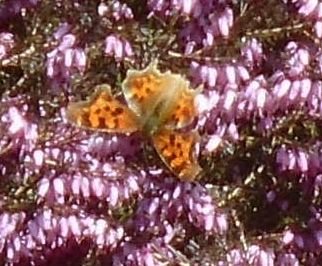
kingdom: Animalia
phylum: Arthropoda
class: Insecta
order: Lepidoptera
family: Nymphalidae
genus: Polygonia
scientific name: Polygonia faunus
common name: Green Comma
